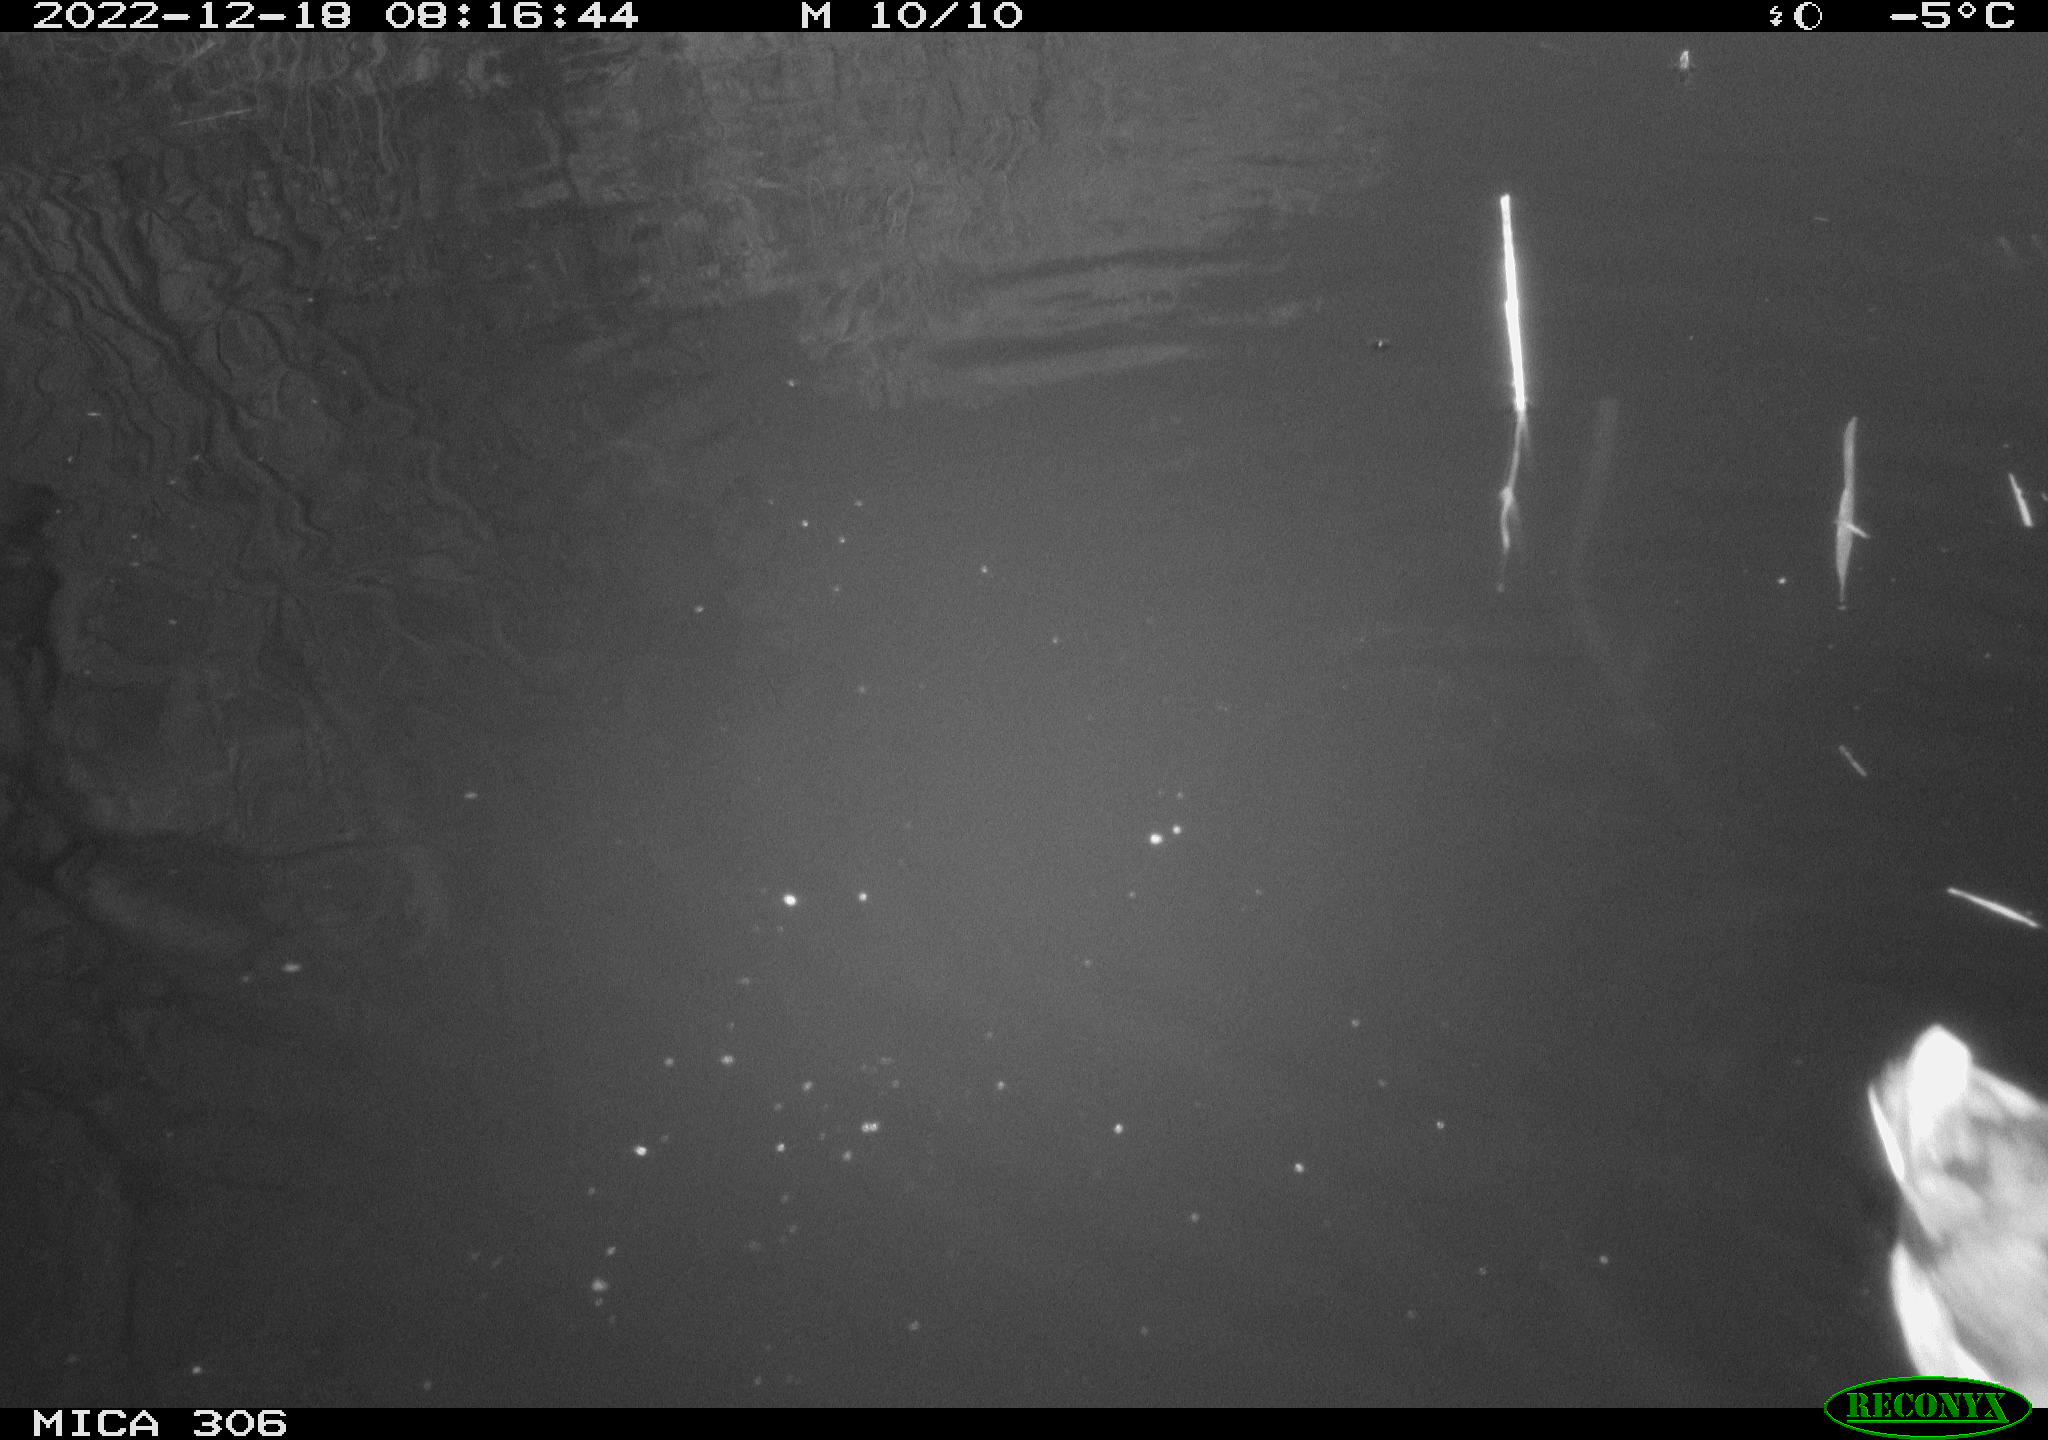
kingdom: Animalia
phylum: Chordata
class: Aves
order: Anseriformes
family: Anatidae
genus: Anas
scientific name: Anas
